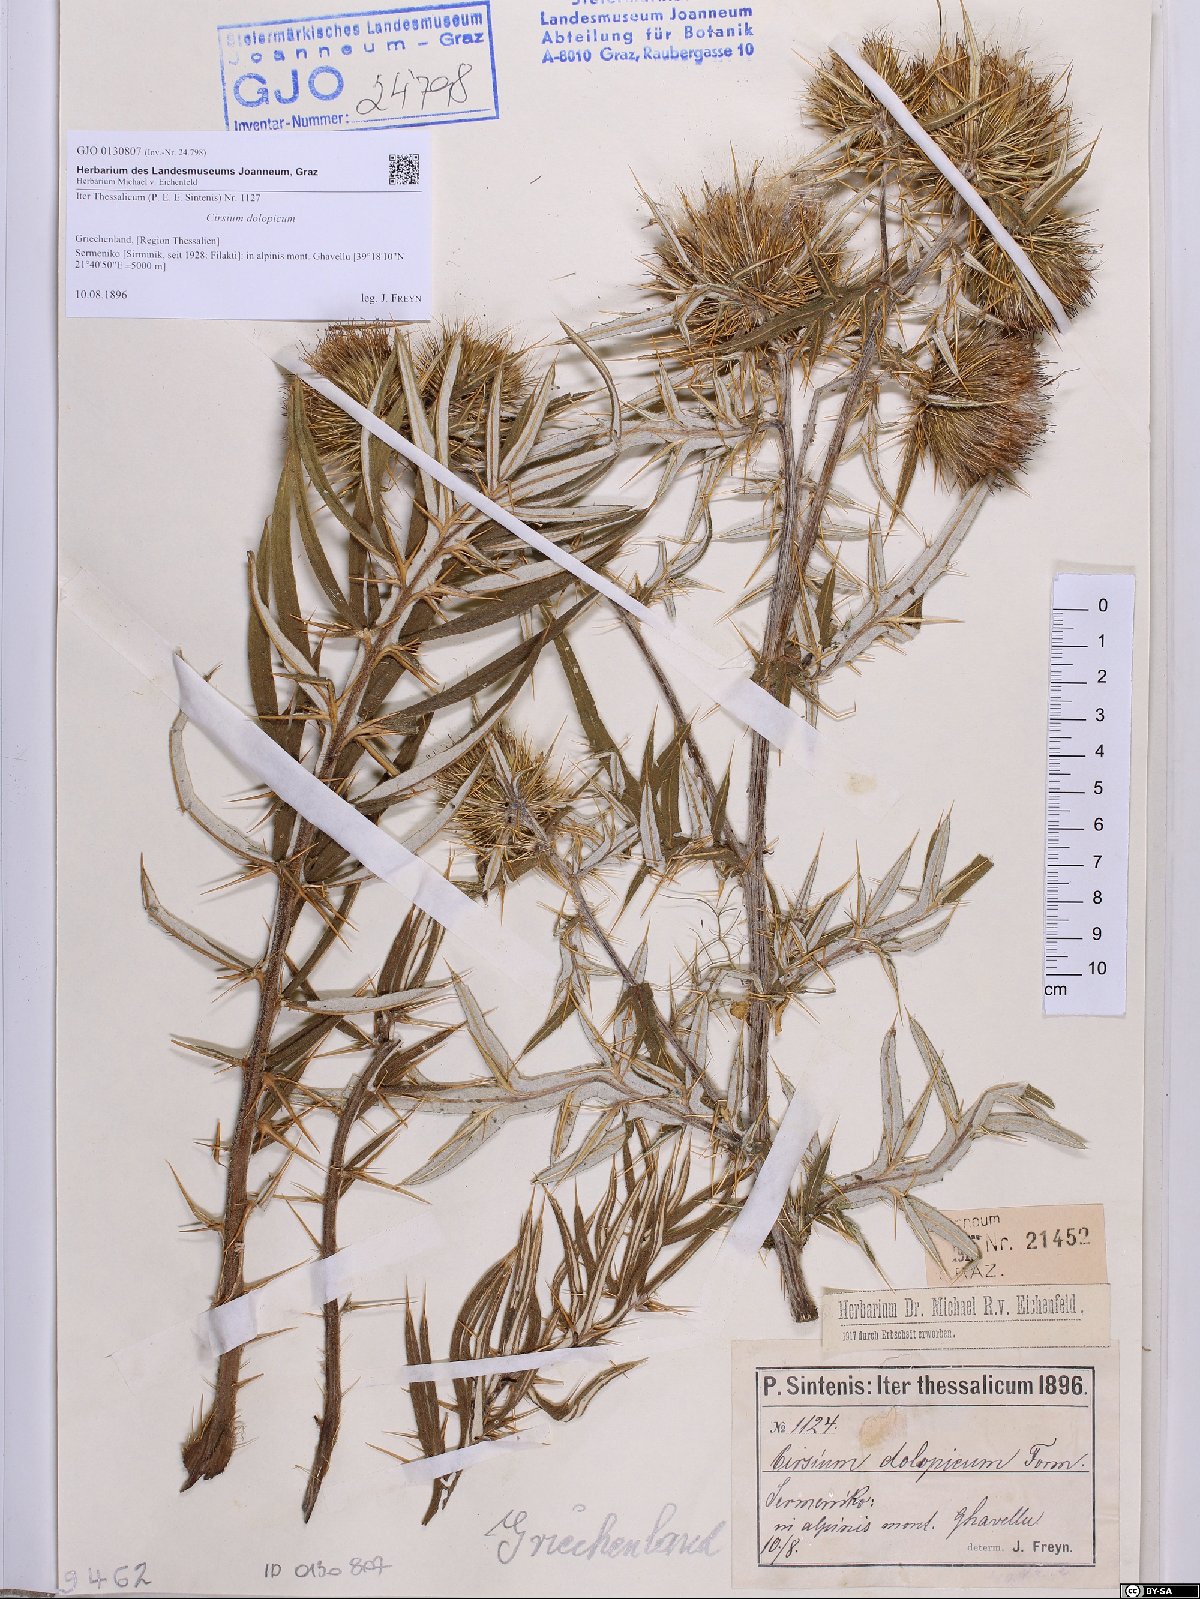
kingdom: Plantae
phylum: Tracheophyta
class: Magnoliopsida
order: Asterales
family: Asteraceae
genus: Cirsium
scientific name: Cirsium dolopicum
